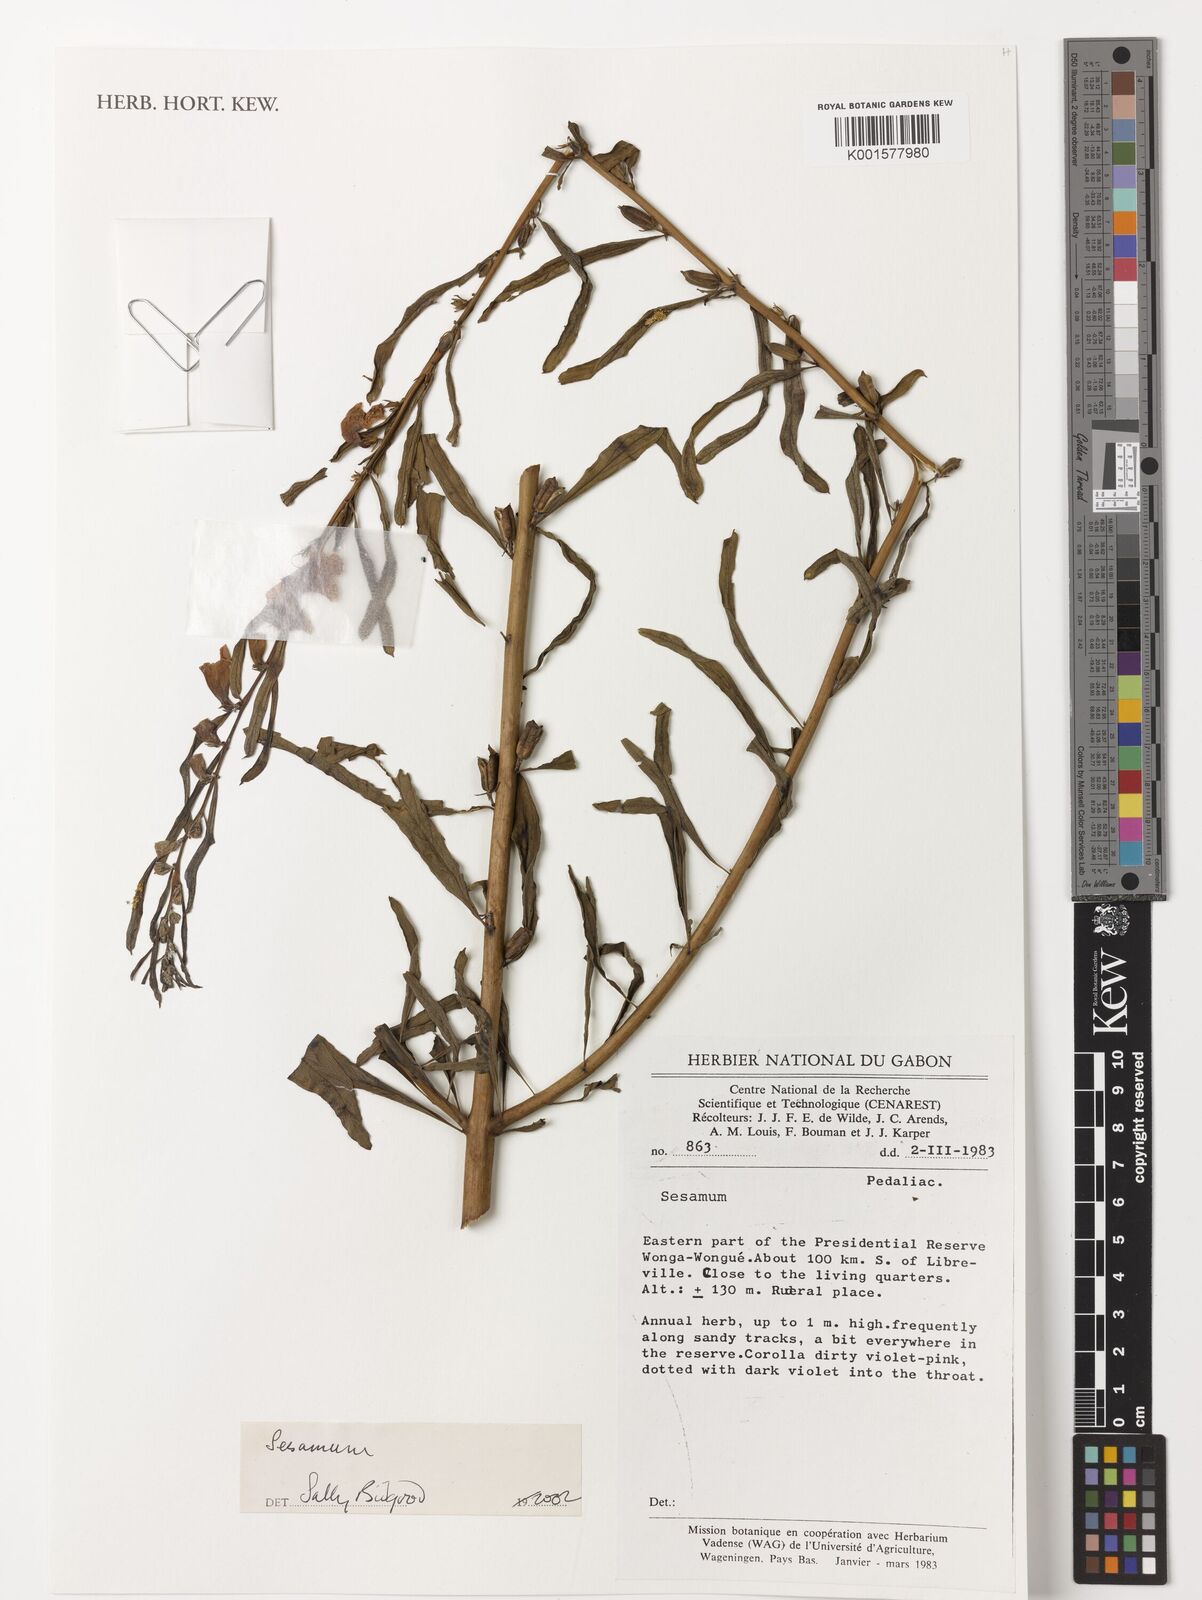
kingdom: Plantae
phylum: Tracheophyta
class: Magnoliopsida
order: Lamiales
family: Pedaliaceae
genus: Sesamum
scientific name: Sesamum
